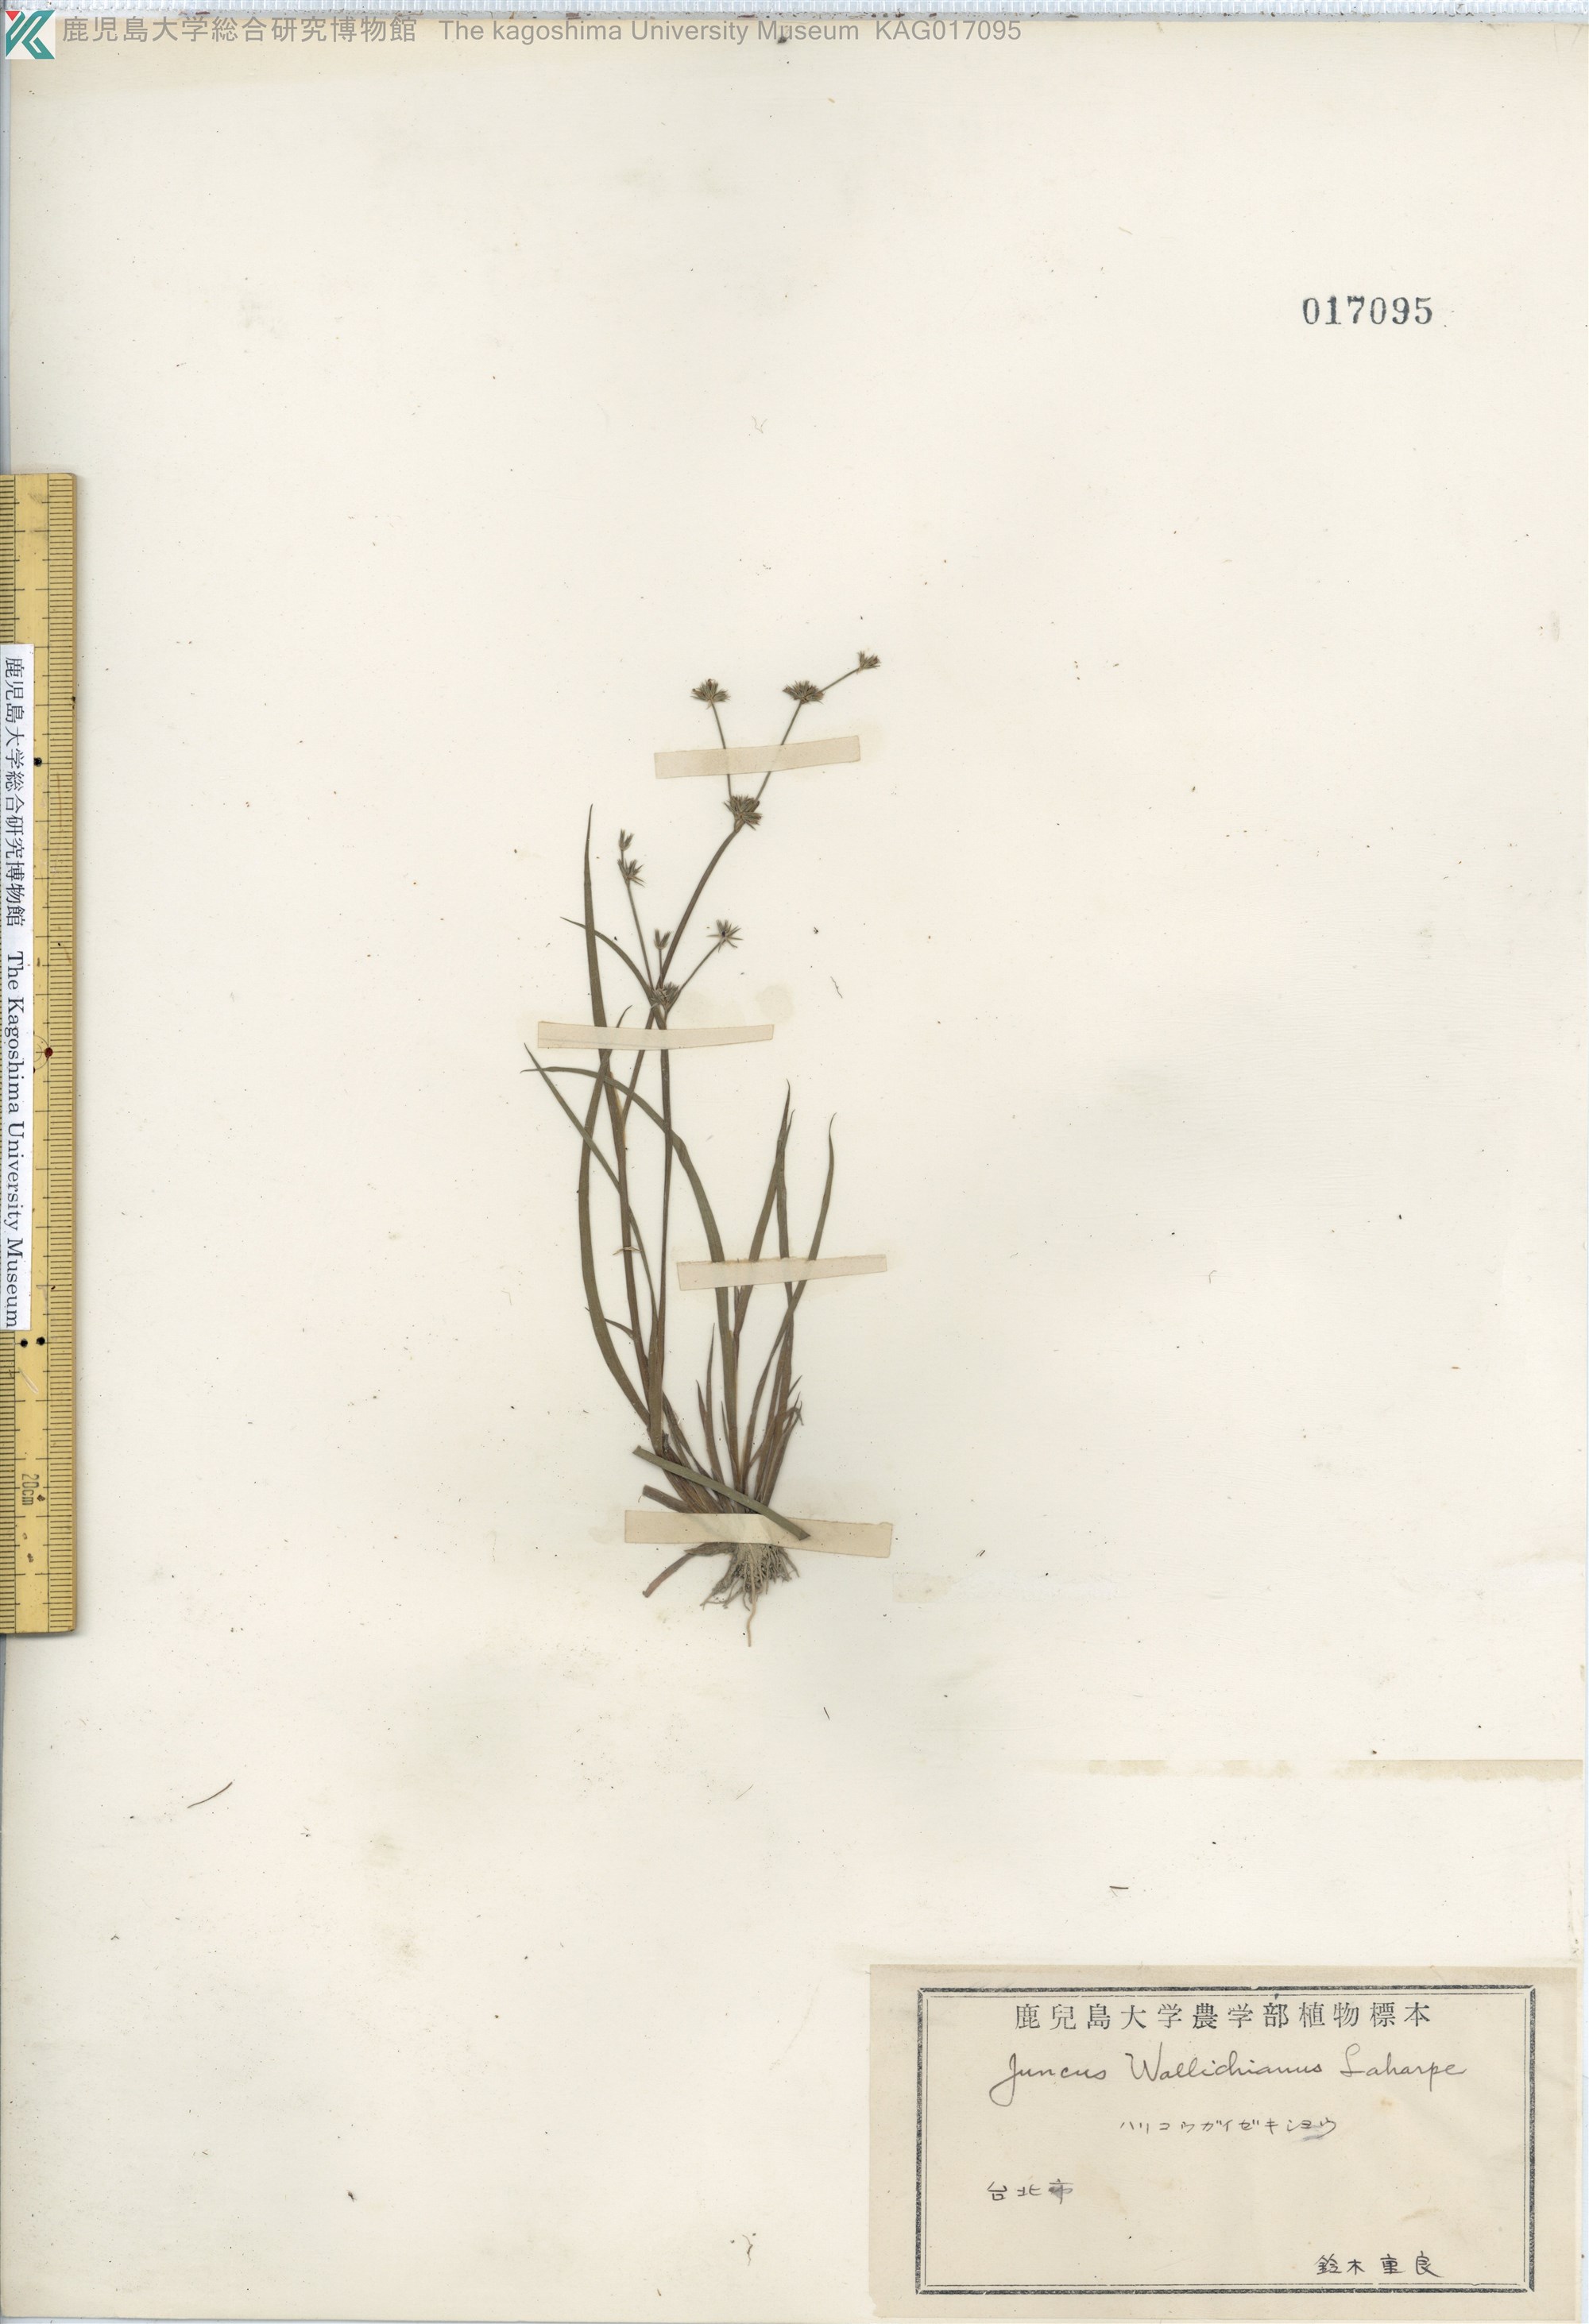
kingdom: Plantae
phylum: Tracheophyta
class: Liliopsida
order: Poales
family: Juncaceae
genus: Juncus
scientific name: Juncus prismatocarpus
